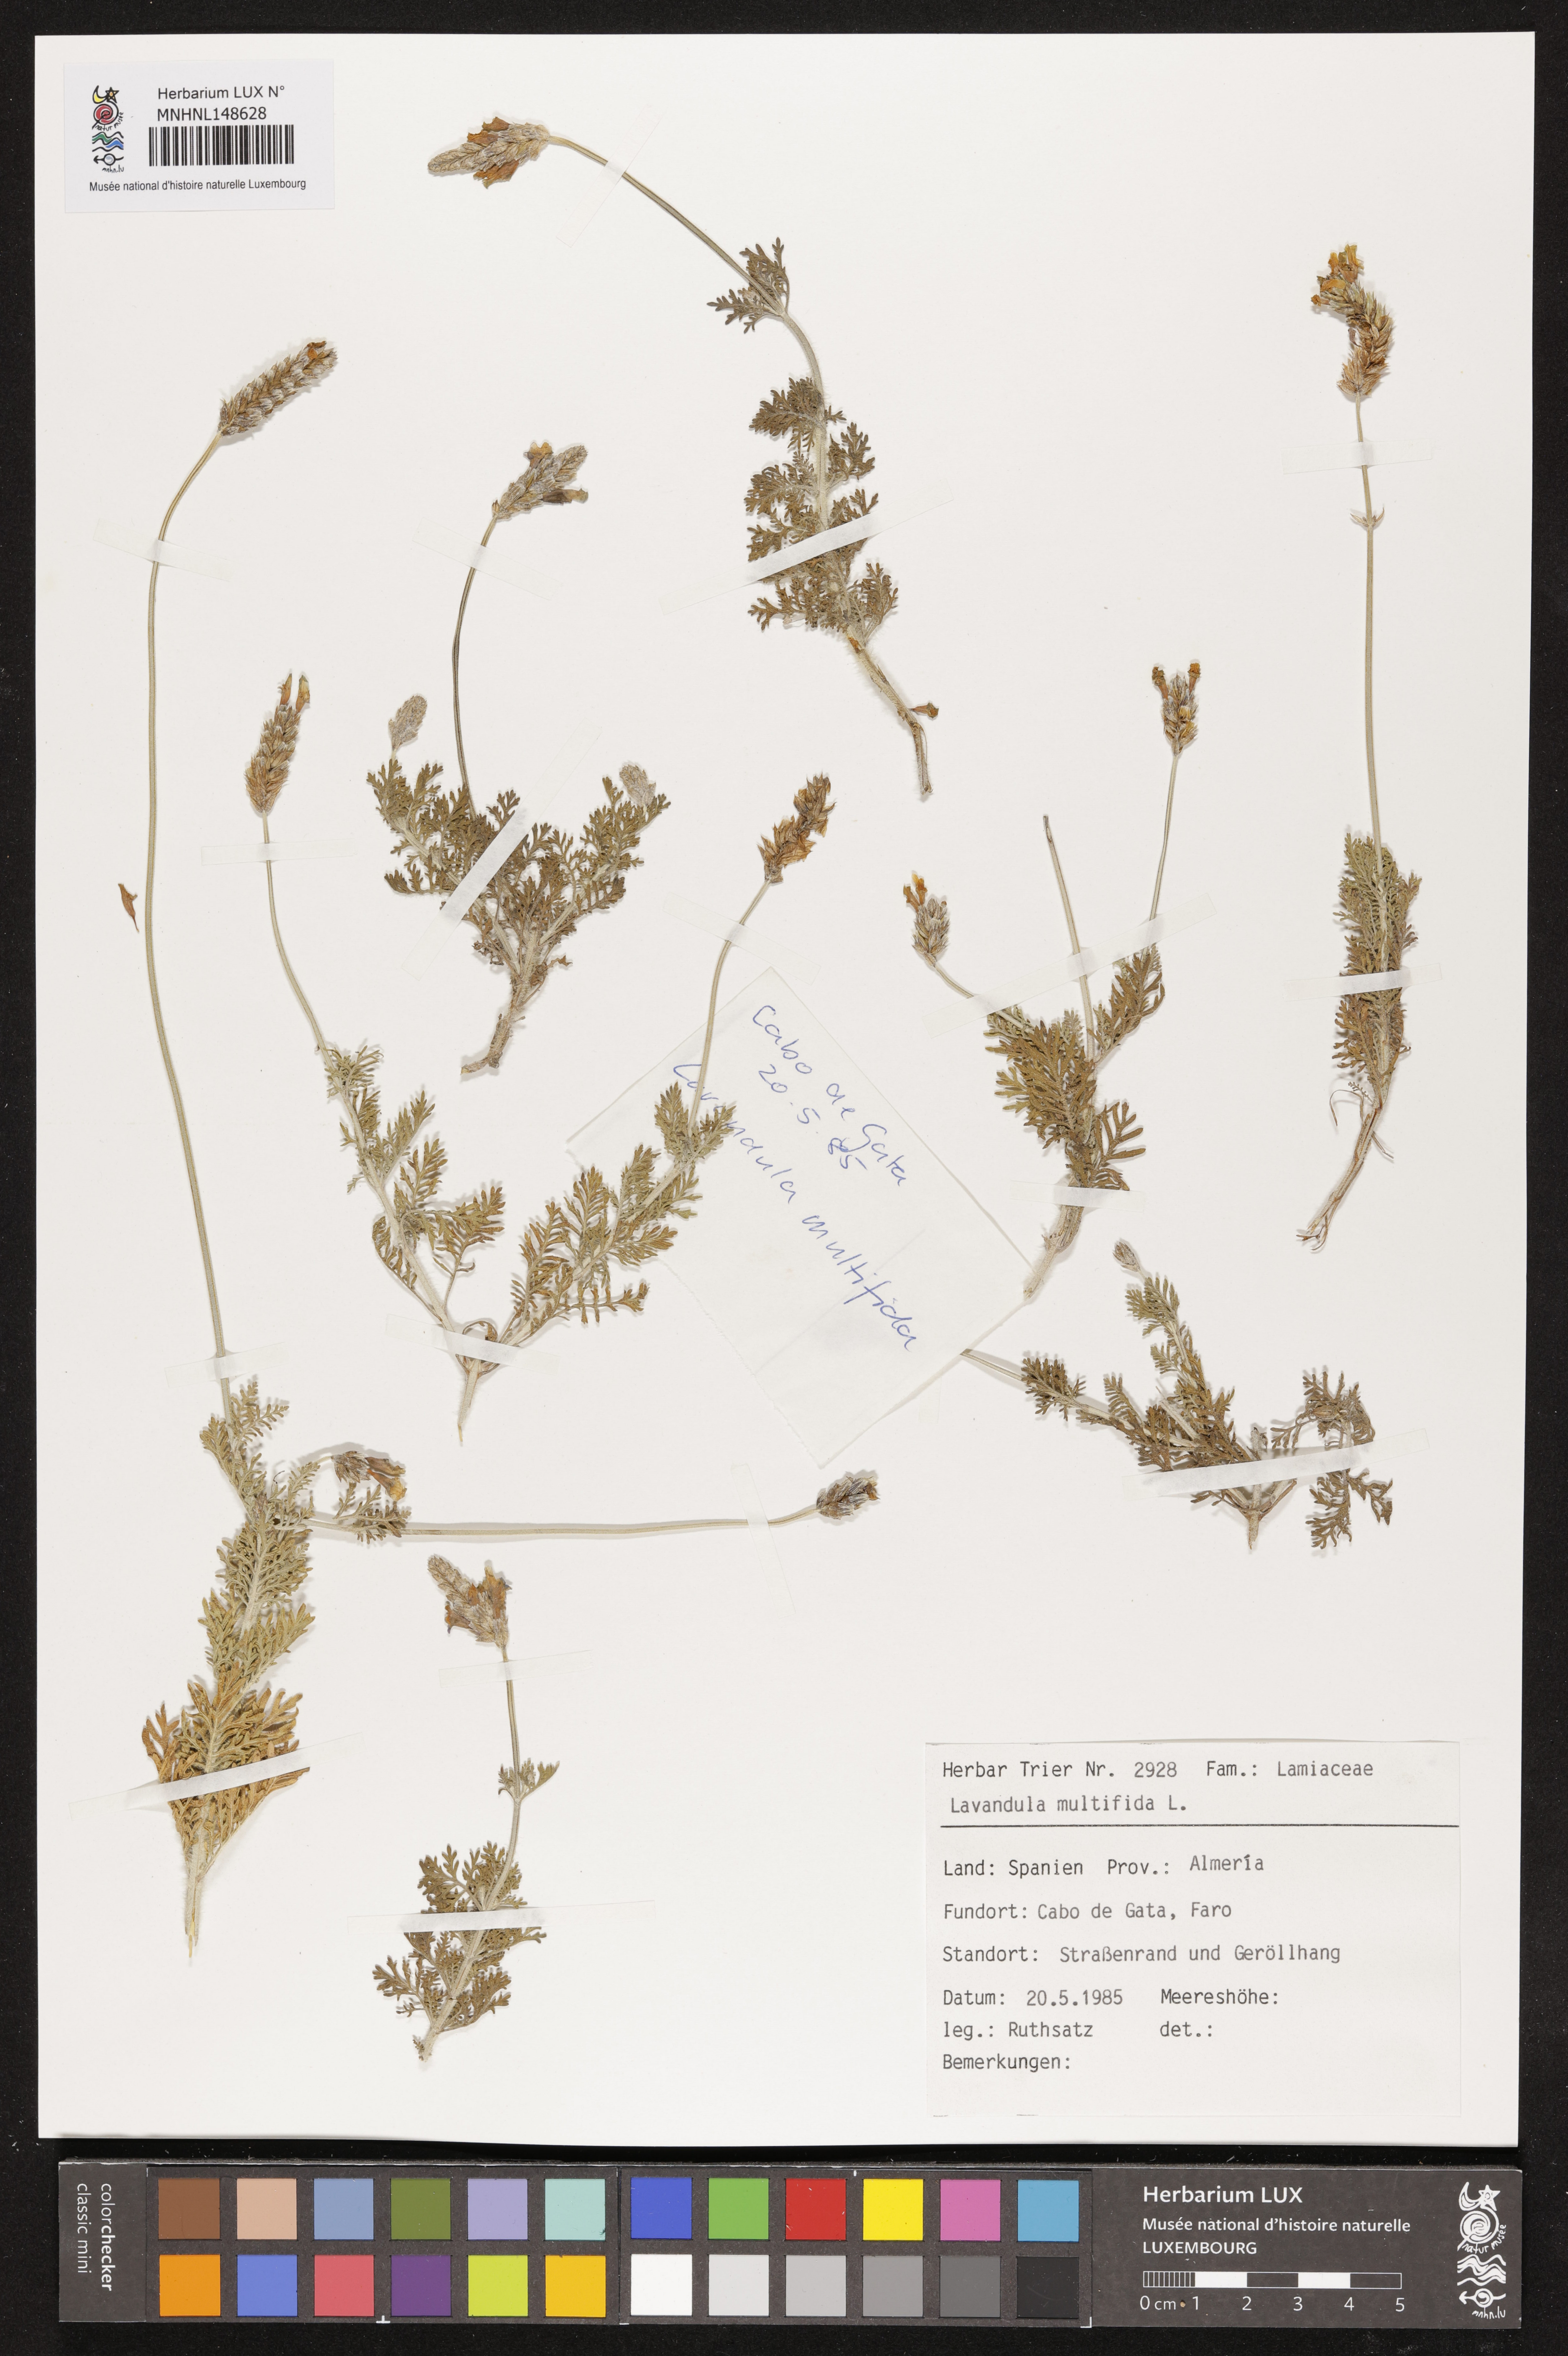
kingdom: Plantae
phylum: Tracheophyta
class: Magnoliopsida
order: Lamiales
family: Lamiaceae
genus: Lavandula
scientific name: Lavandula multifida
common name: Fern-leaf lavender
